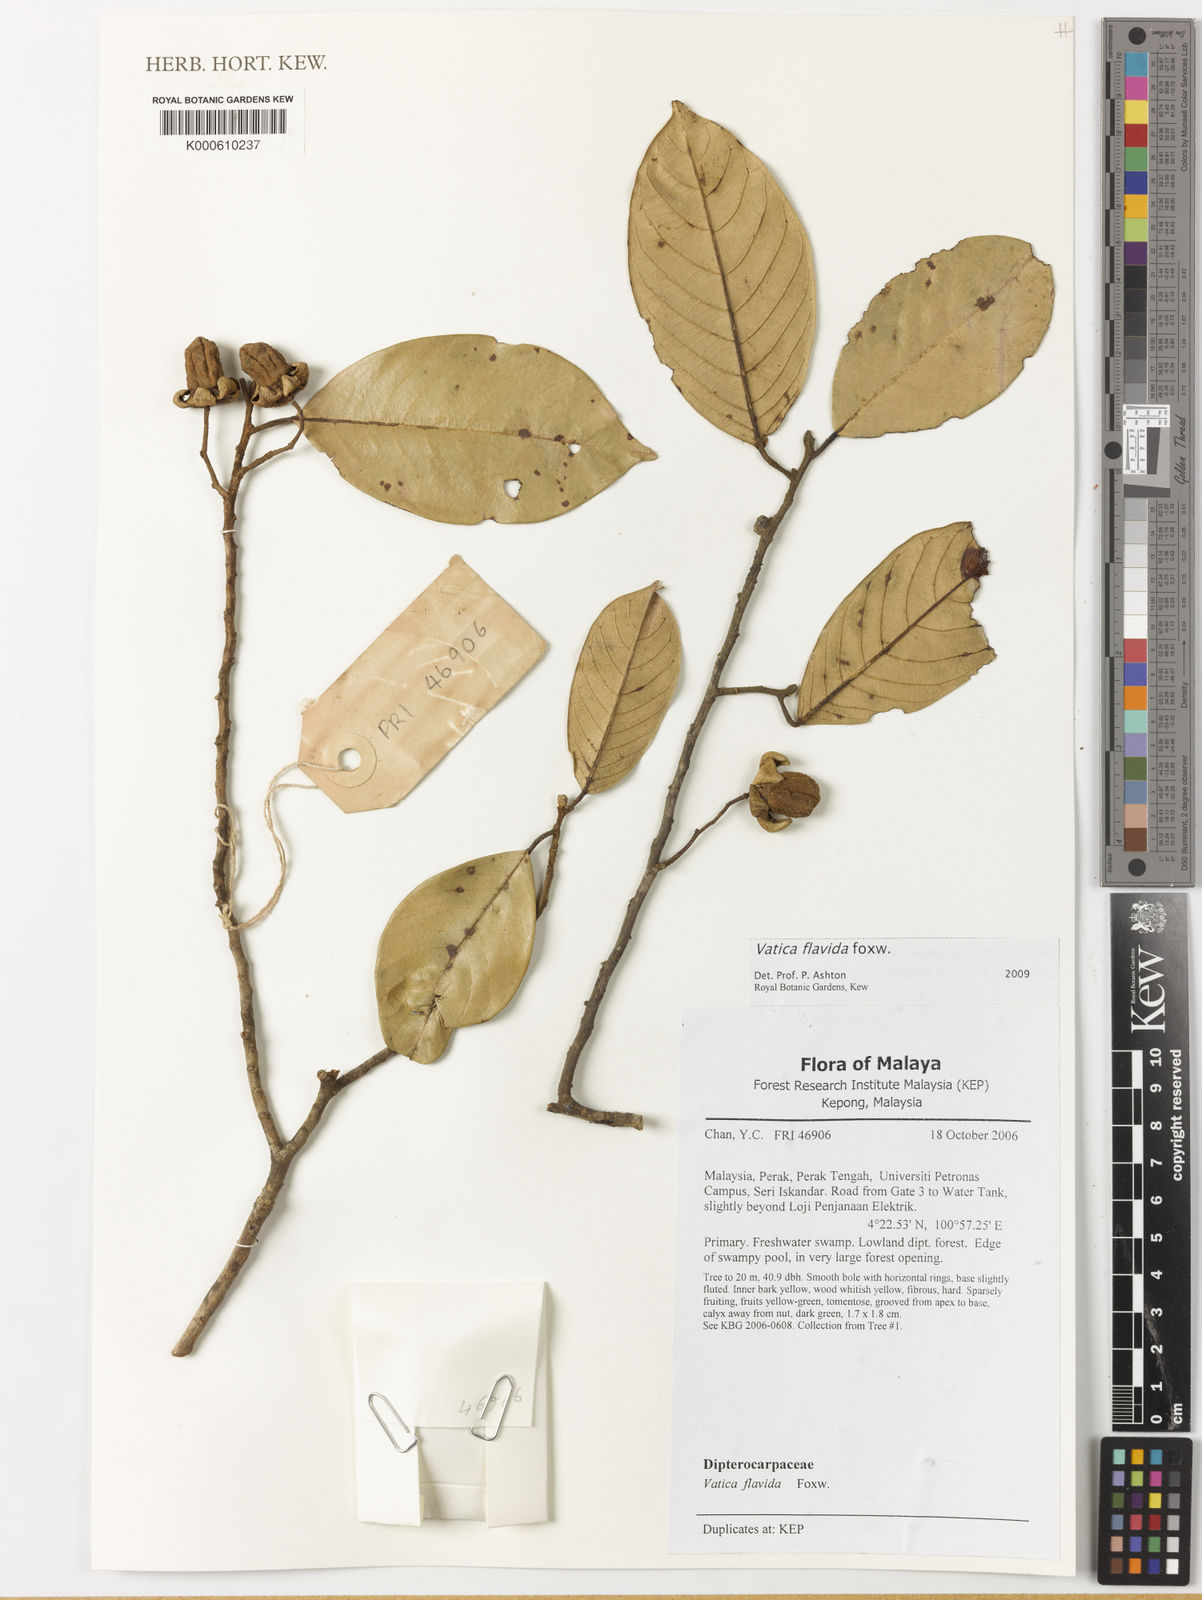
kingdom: Plantae
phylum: Tracheophyta
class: Magnoliopsida
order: Malvales
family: Dipterocarpaceae
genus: Vatica
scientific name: Vatica flavida
